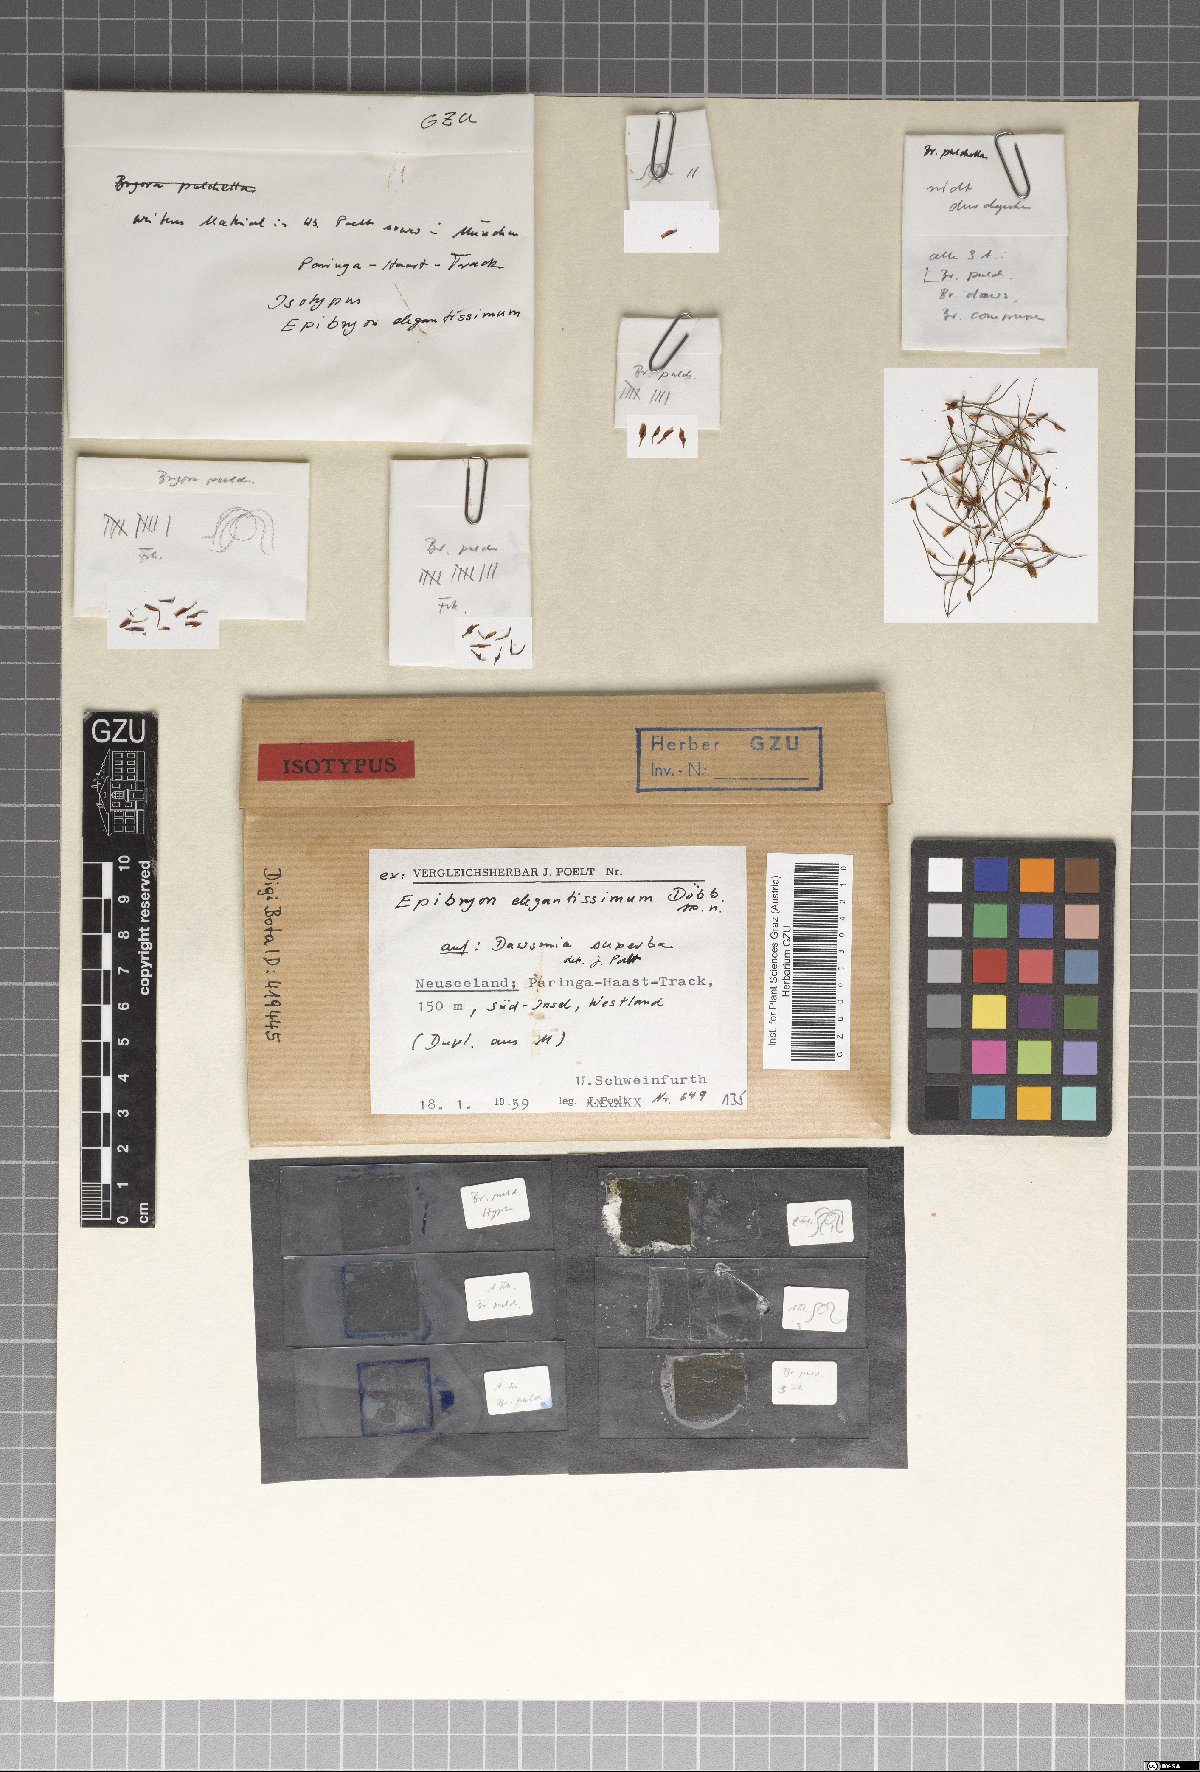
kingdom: Fungi
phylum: Ascomycota
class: Eurotiomycetes
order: Chaetothyriales
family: Epibryaceae
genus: Epibryon
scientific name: Epibryon elegantissimum
